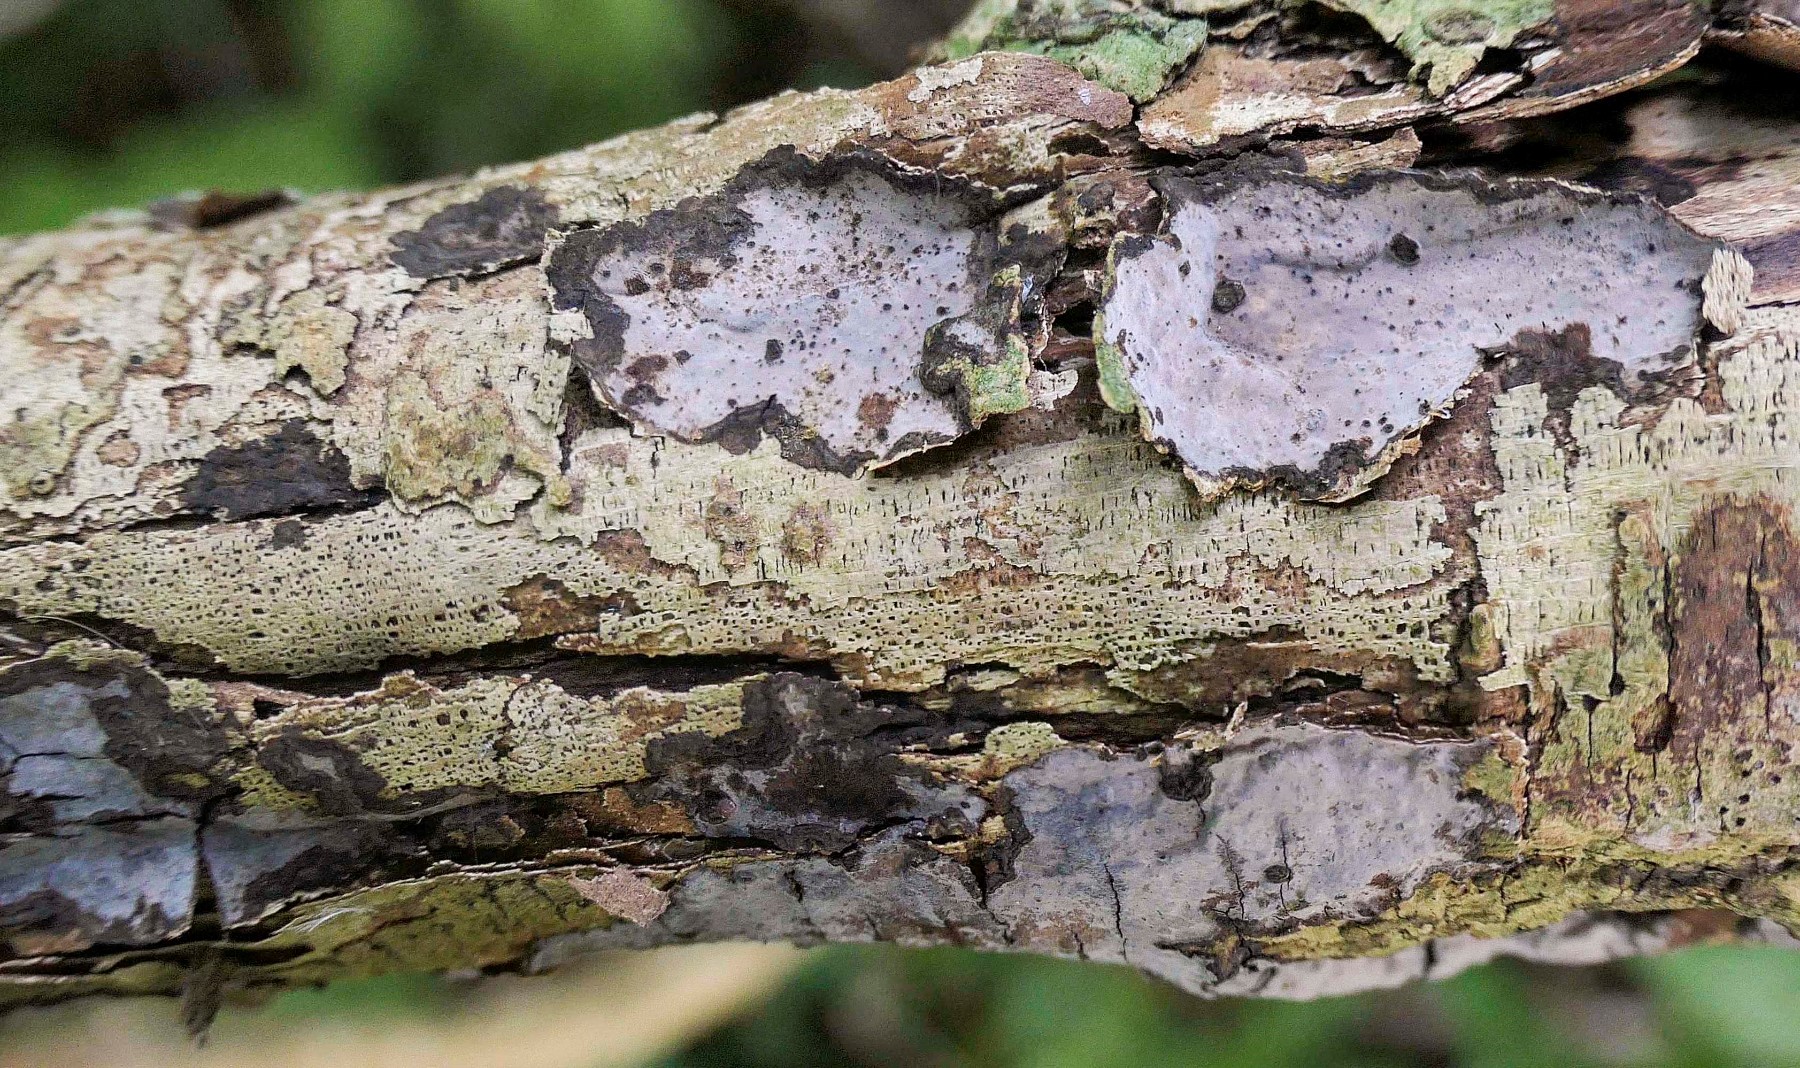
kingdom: Fungi
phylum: Basidiomycota
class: Agaricomycetes
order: Russulales
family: Peniophoraceae
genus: Peniophora
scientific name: Peniophora limitata
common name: mørkrandet voksskind
